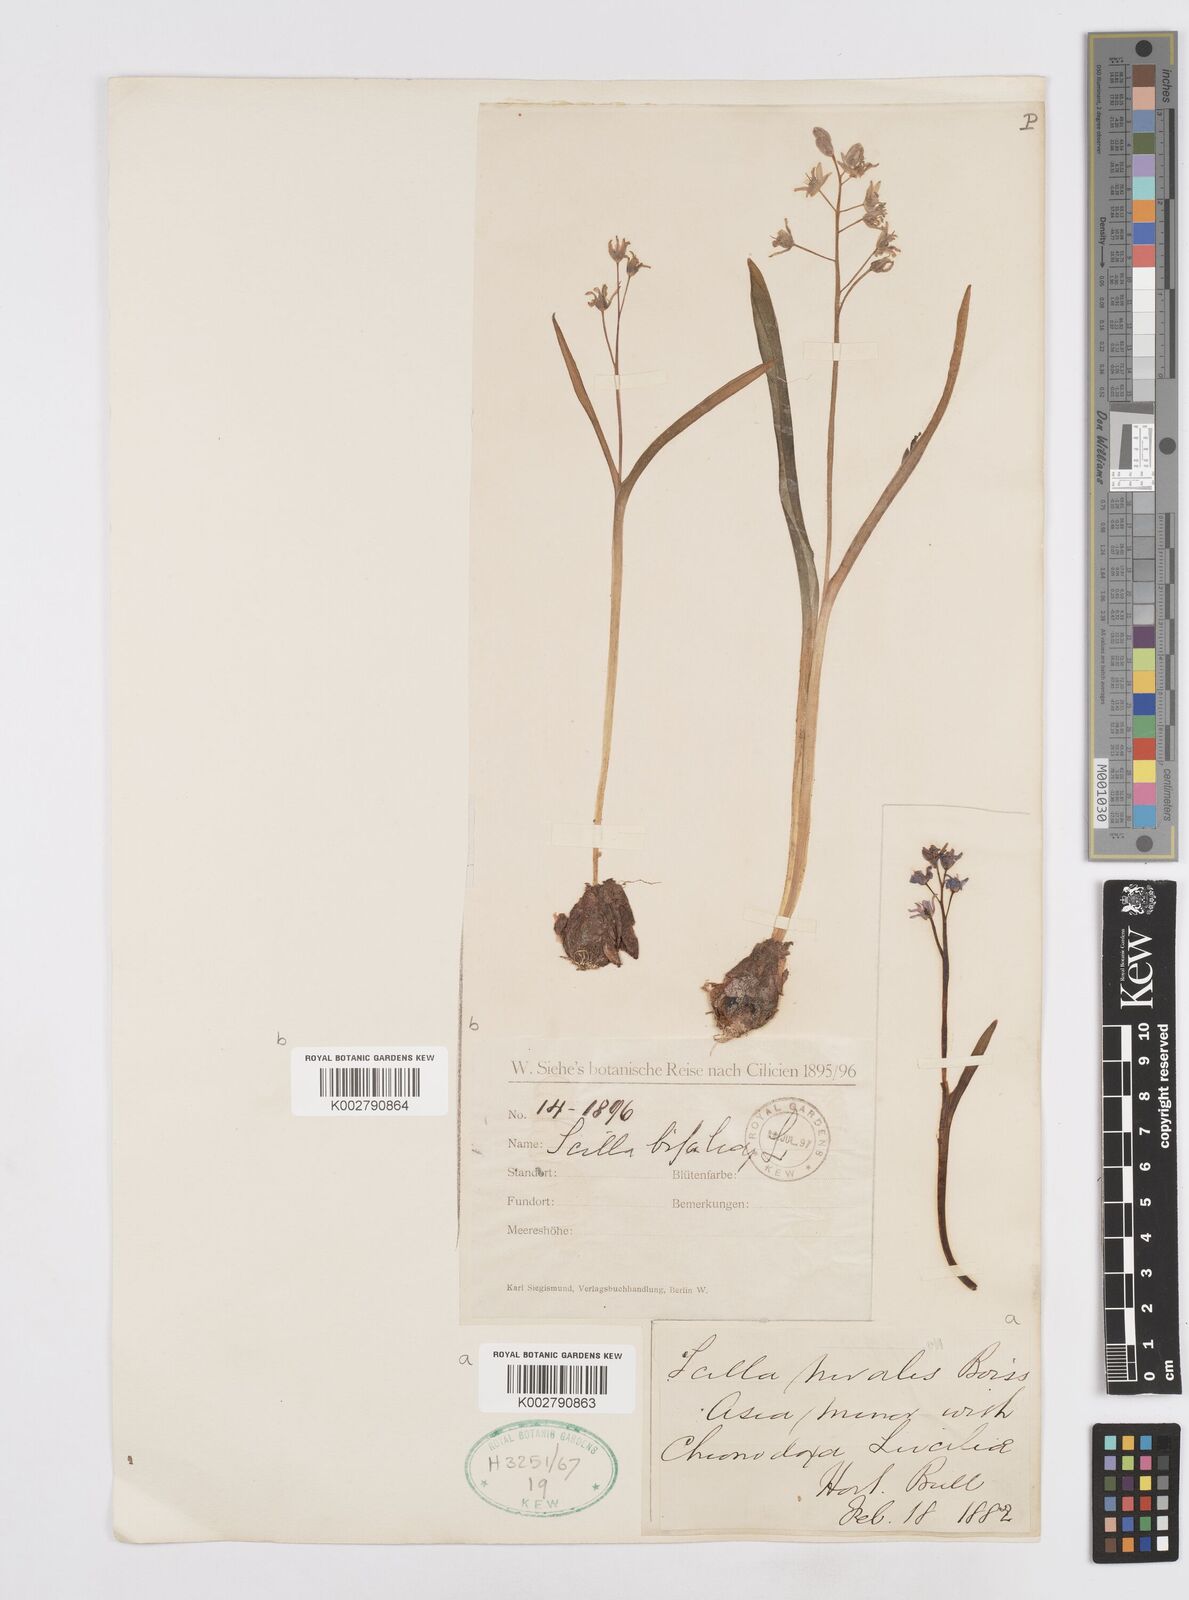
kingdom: Plantae
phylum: Tracheophyta
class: Liliopsida
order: Asparagales
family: Asparagaceae
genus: Scilla
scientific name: Scilla bifolia
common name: Alpine squill
